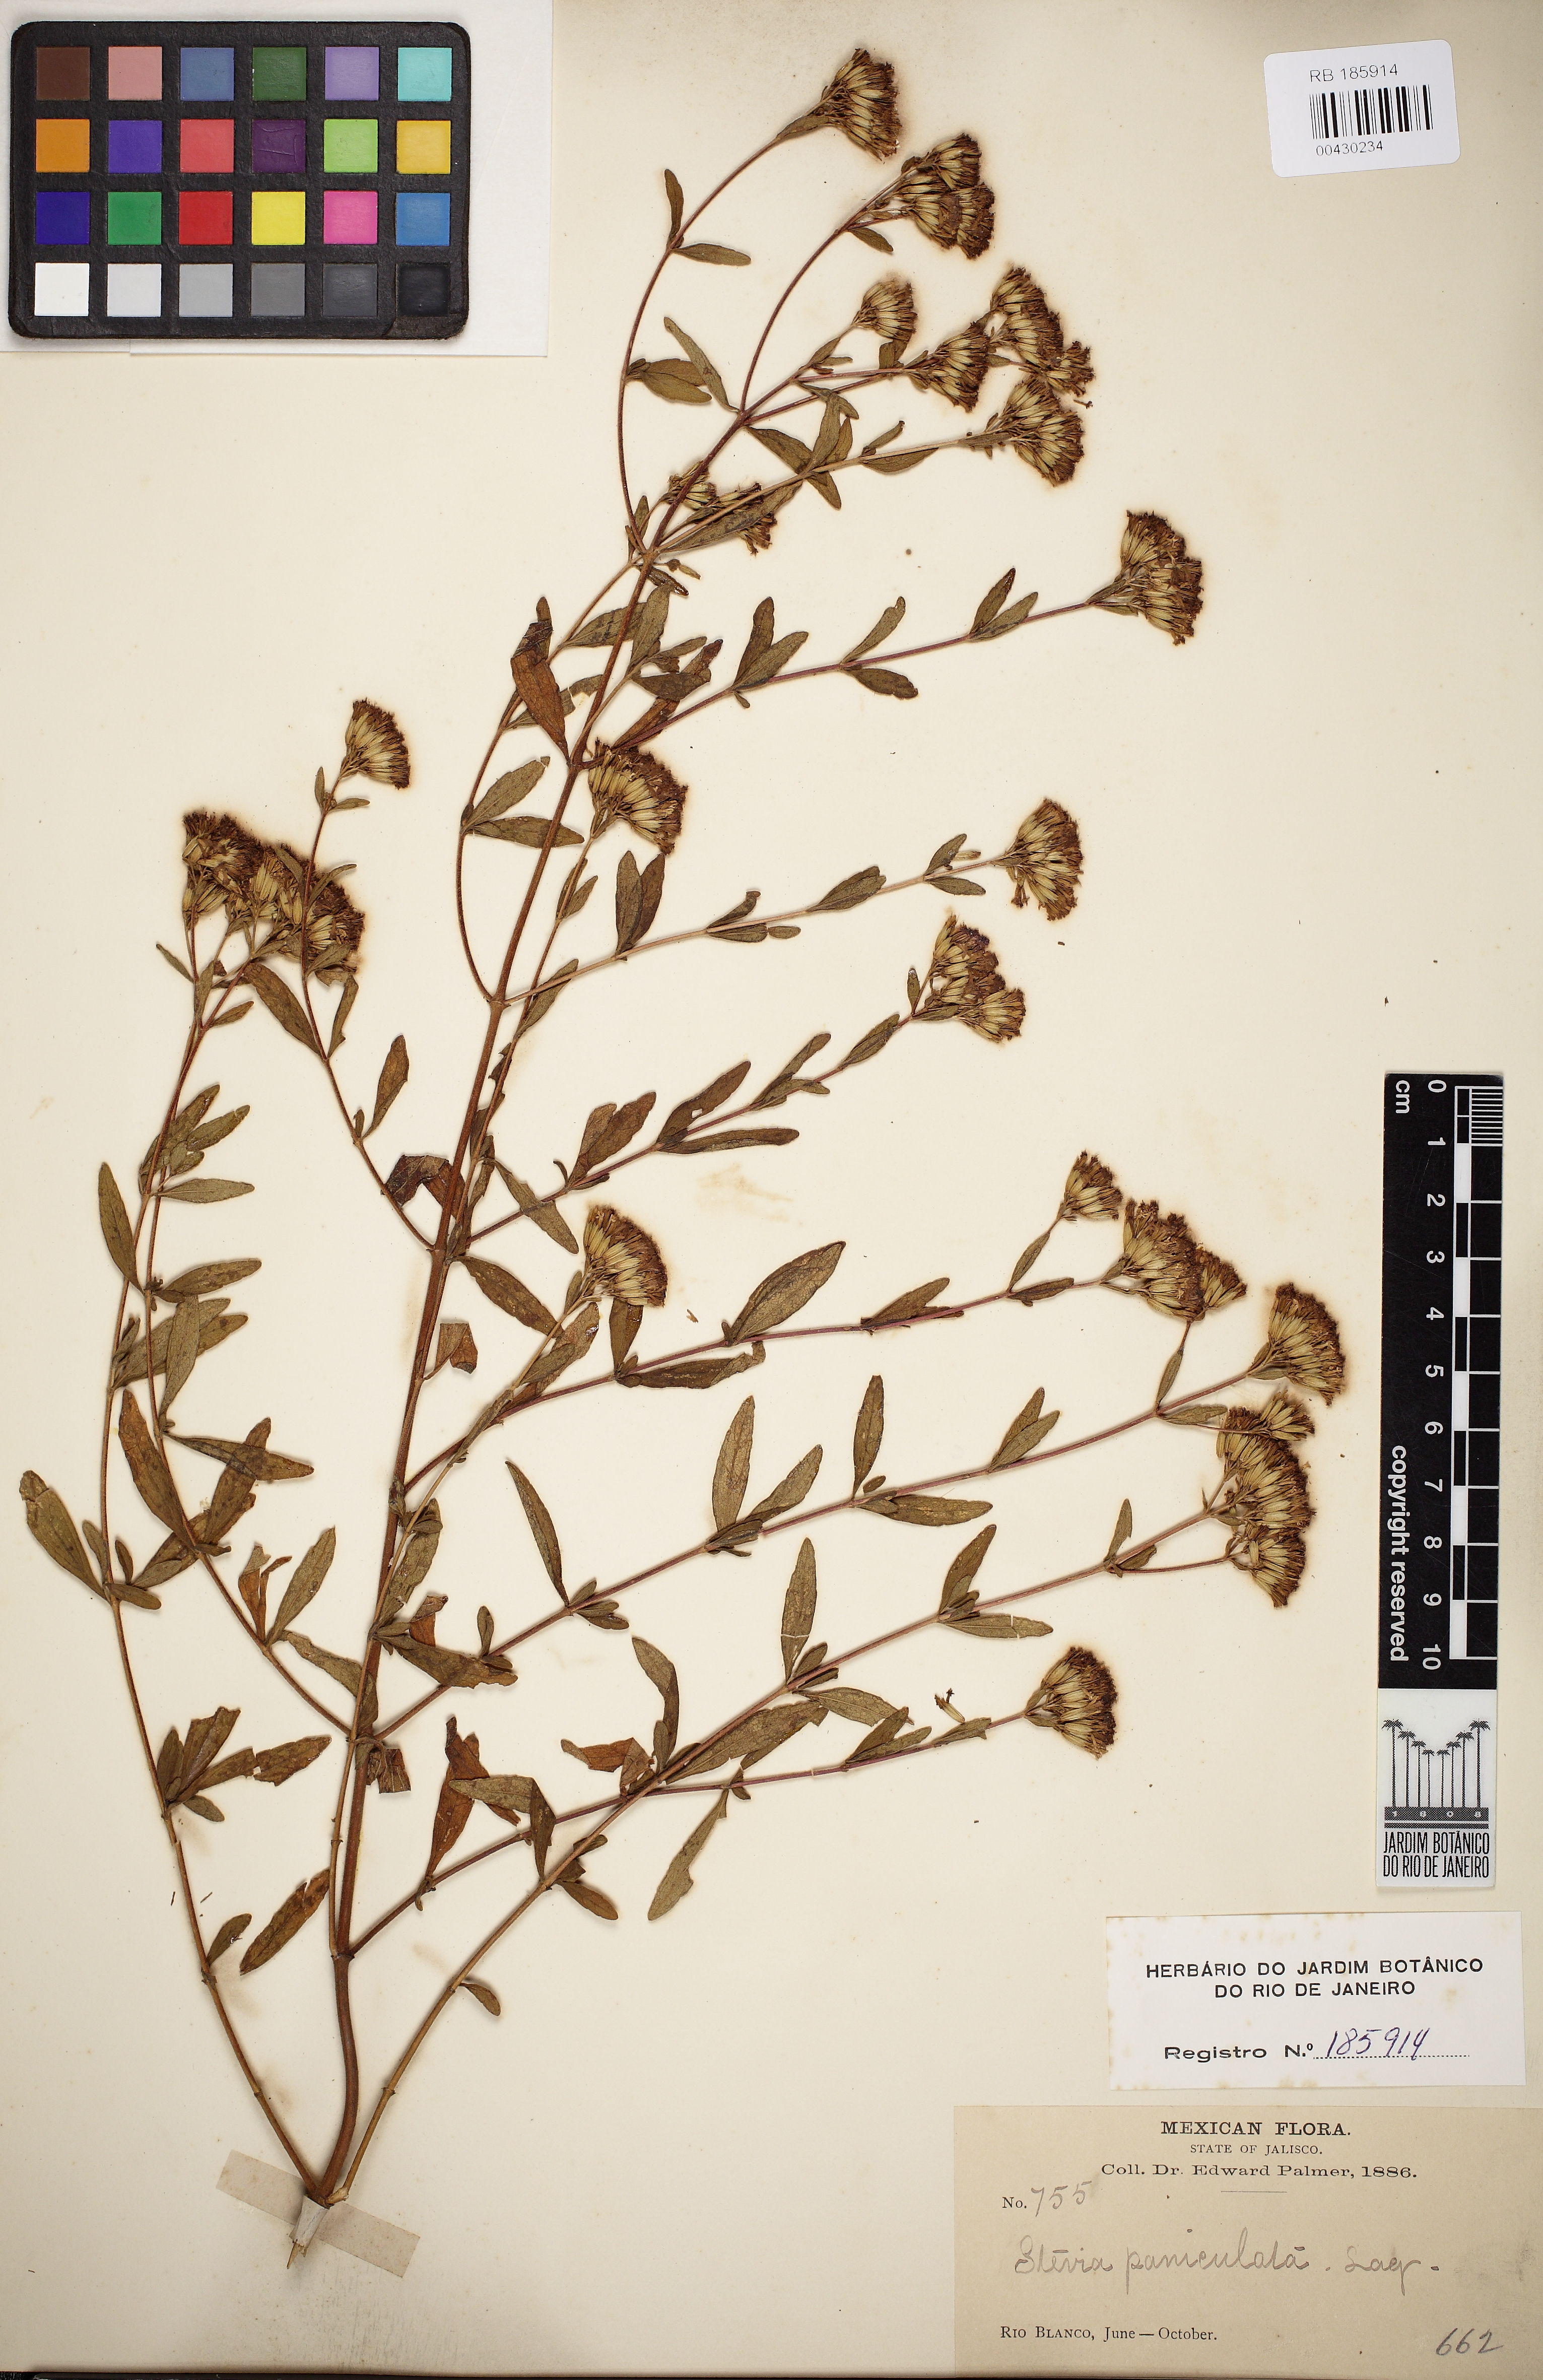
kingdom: Plantae
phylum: Tracheophyta
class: Magnoliopsida
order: Asterales
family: Asteraceae
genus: Stevia
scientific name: Stevia ovata
